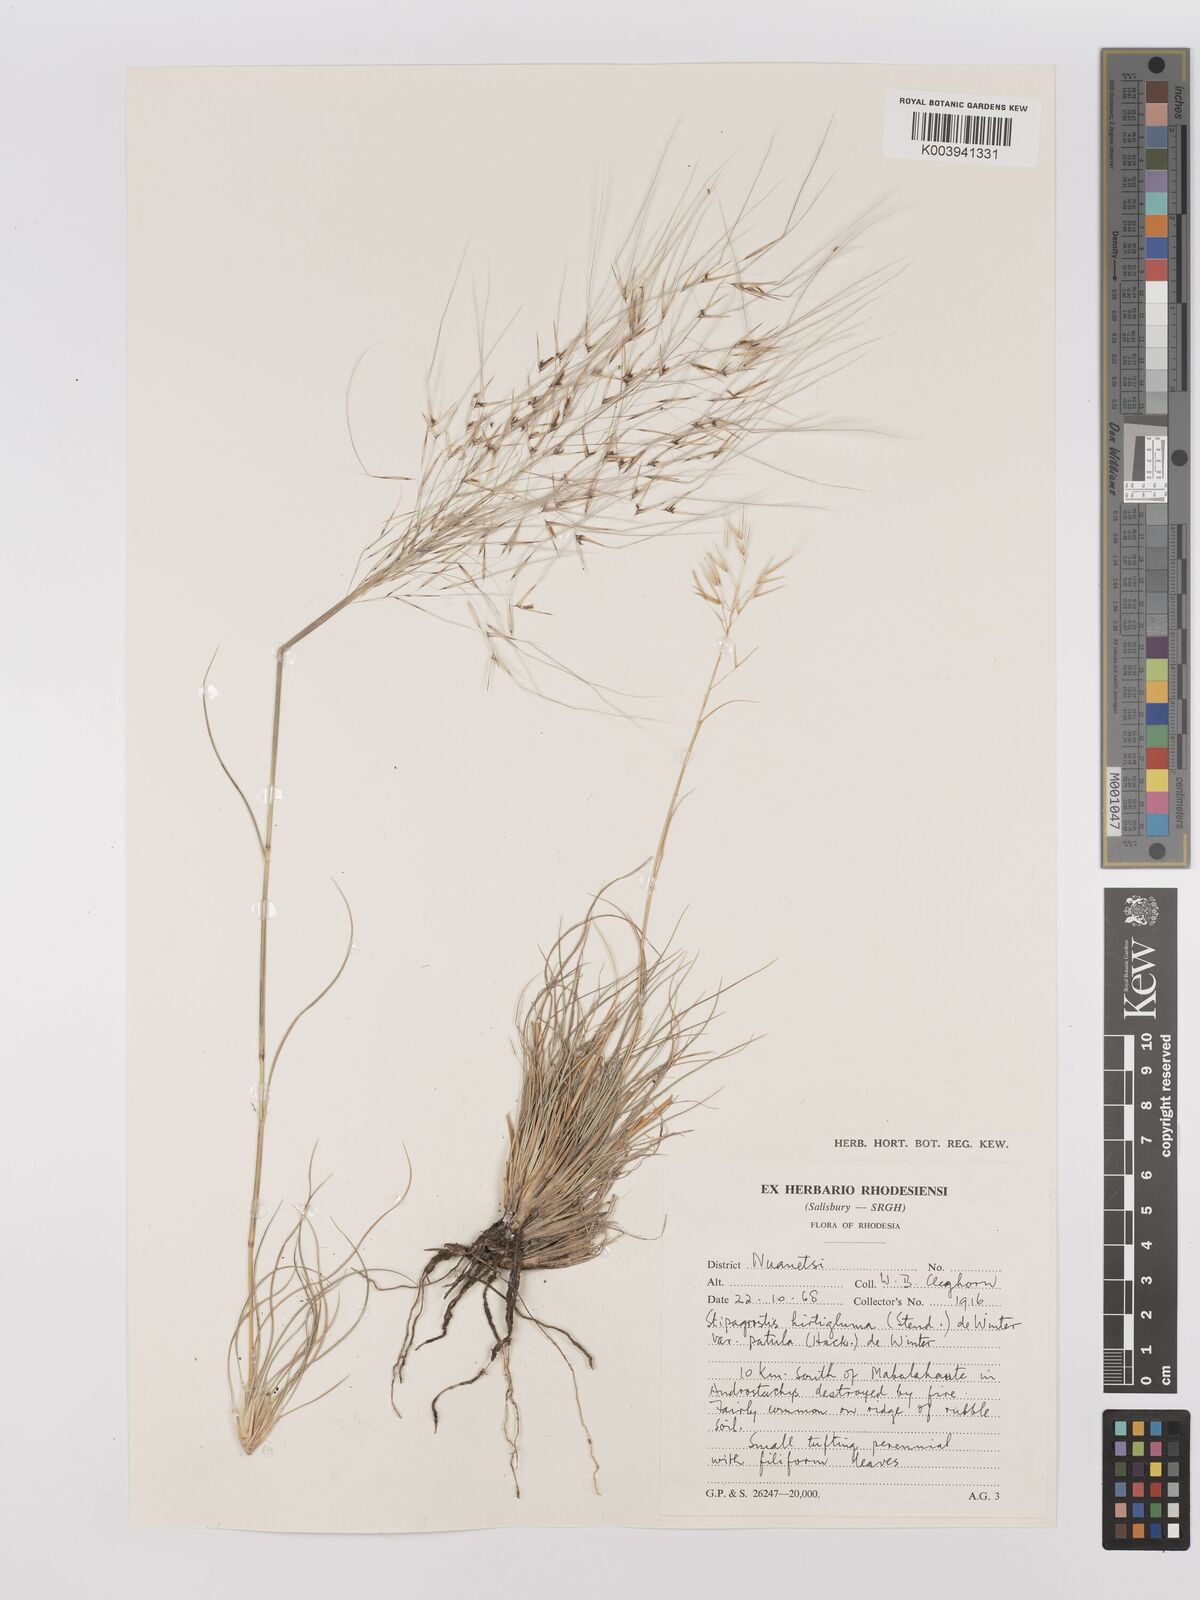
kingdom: Plantae
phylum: Tracheophyta
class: Liliopsida
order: Poales
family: Poaceae
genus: Stipagrostis
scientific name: Stipagrostis hirtigluma
